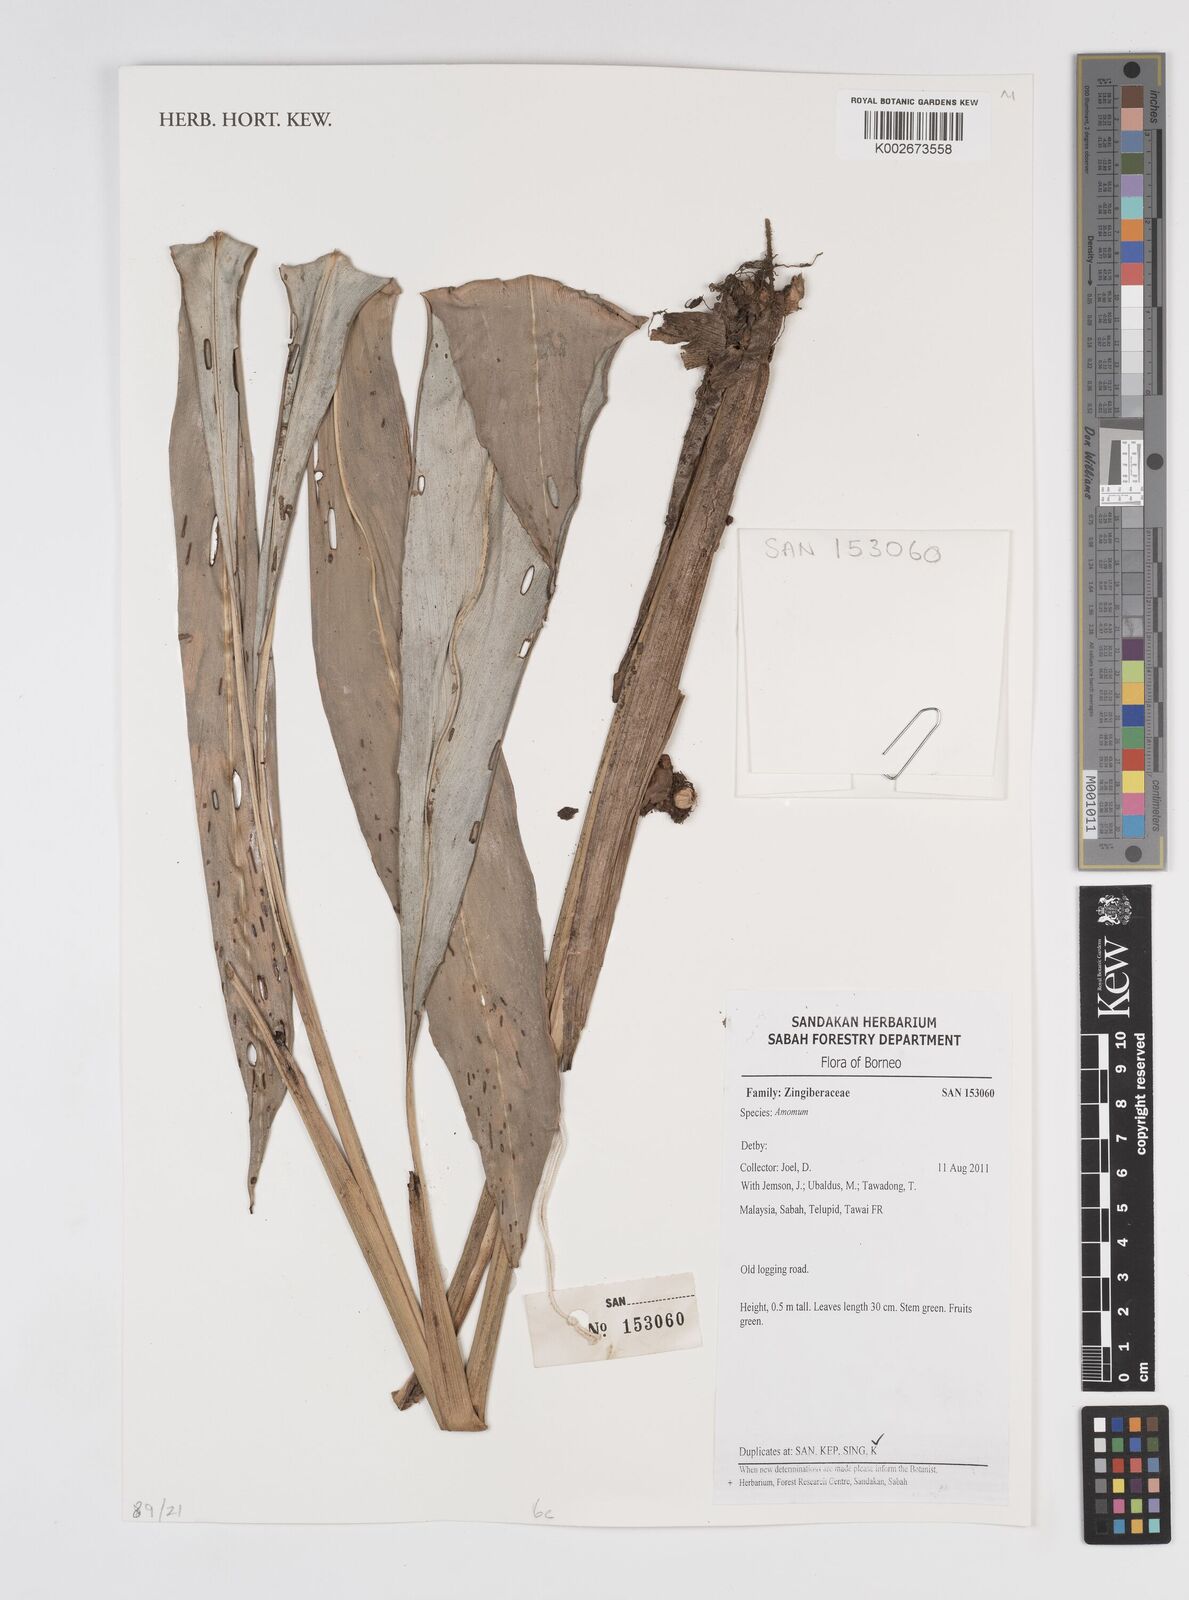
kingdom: Plantae
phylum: Tracheophyta
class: Liliopsida
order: Zingiberales
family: Zingiberaceae
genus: Amomum
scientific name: Amomum
